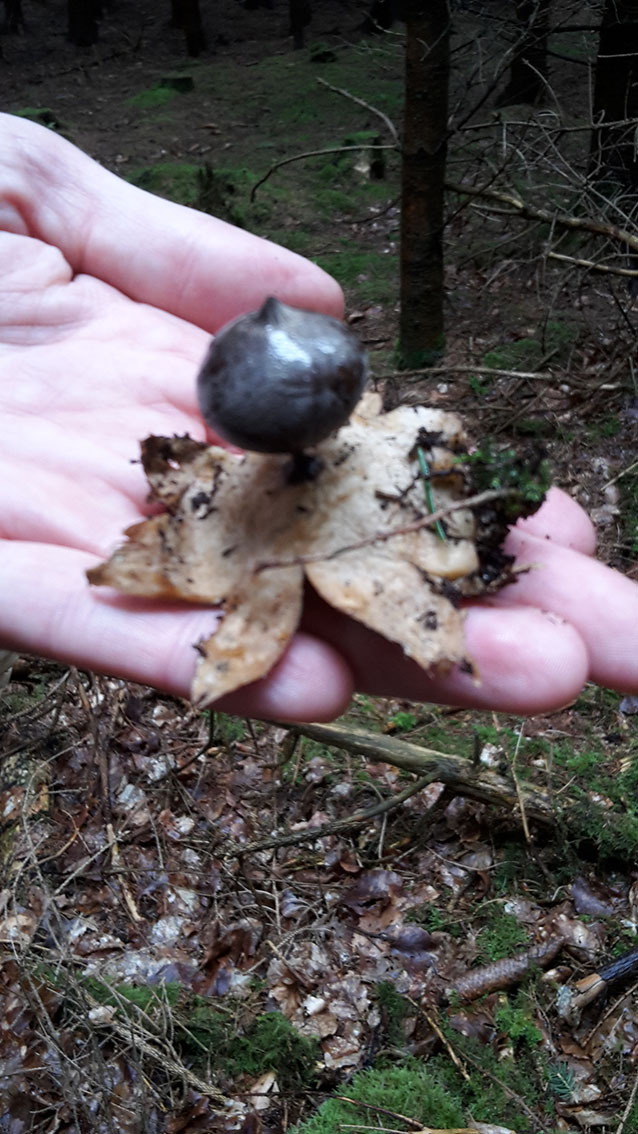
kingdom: Fungi
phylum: Basidiomycota
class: Agaricomycetes
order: Geastrales
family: Geastraceae
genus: Geastrum
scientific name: Geastrum pectinatum
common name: stilket stjernebold
